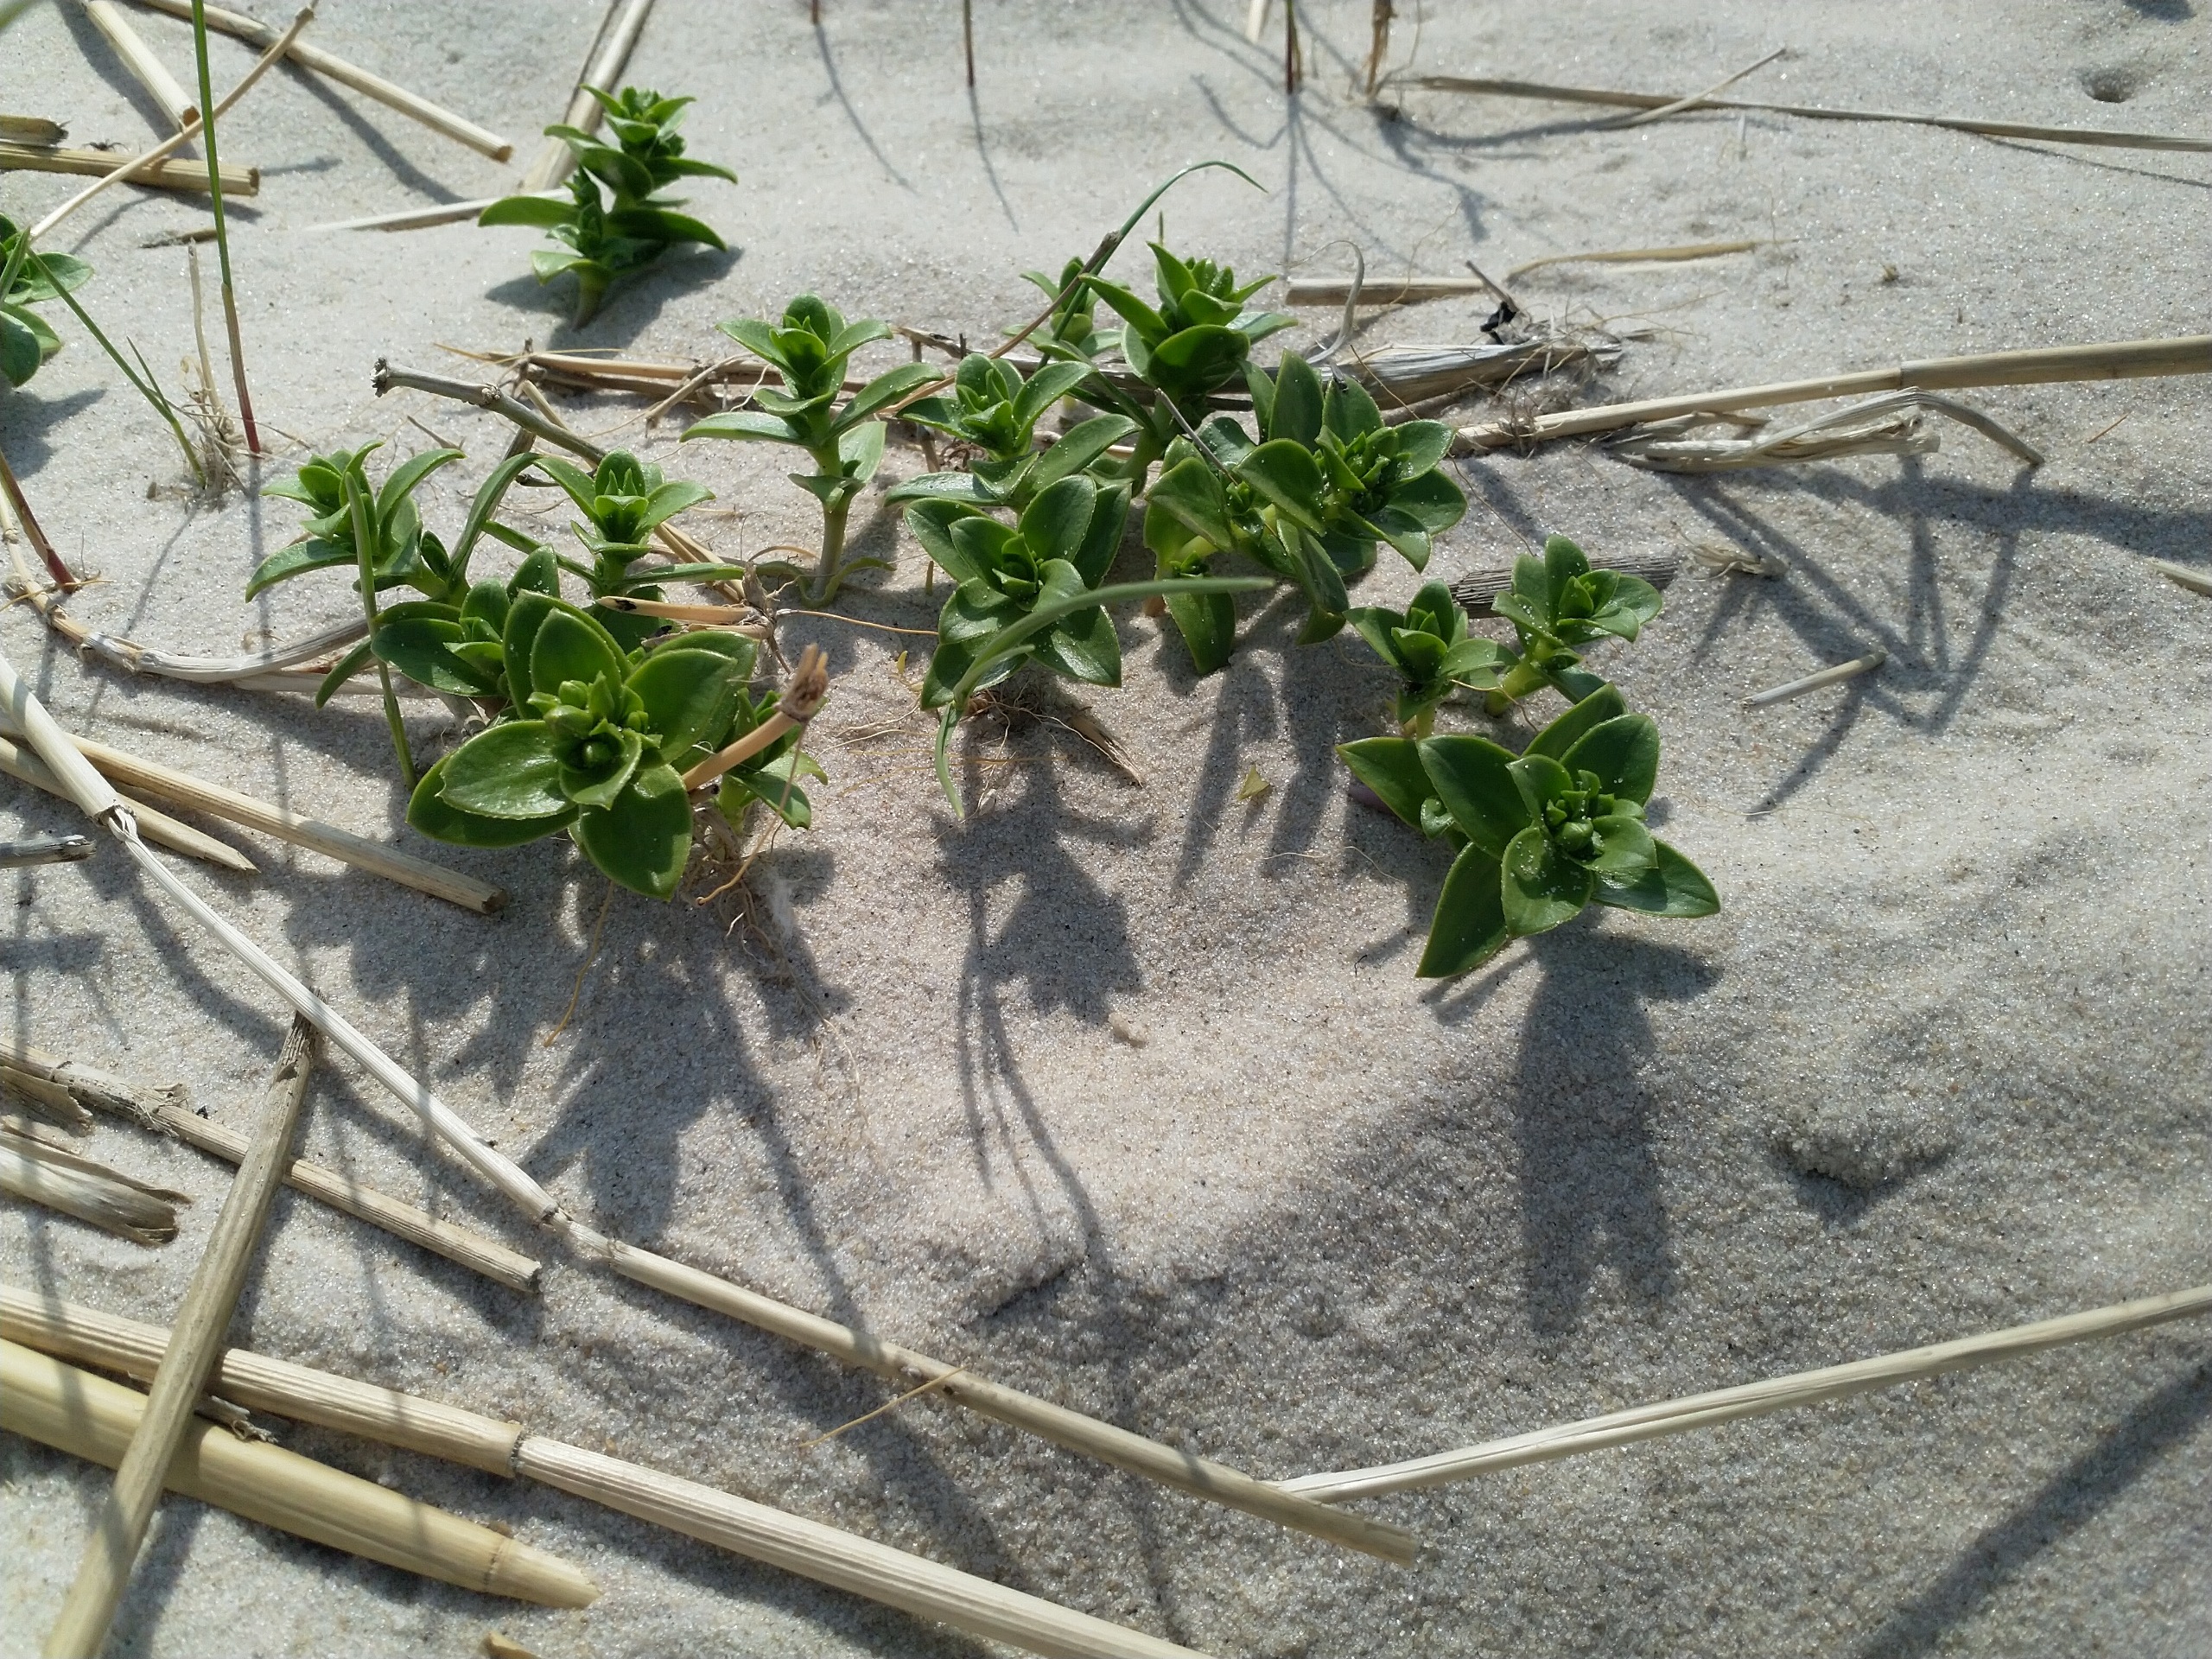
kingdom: Plantae
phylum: Tracheophyta
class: Magnoliopsida
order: Caryophyllales
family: Caryophyllaceae
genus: Honckenya
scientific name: Honckenya peploides
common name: Strandarve
